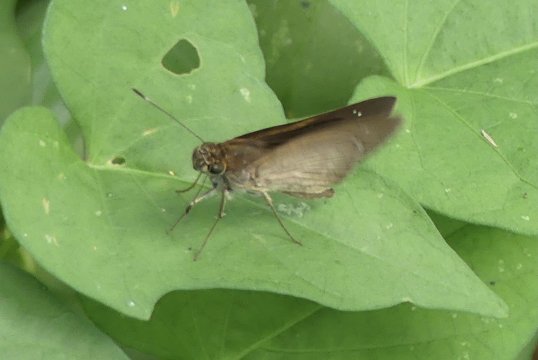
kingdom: Animalia
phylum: Arthropoda
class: Insecta
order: Lepidoptera
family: Hesperiidae
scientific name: Hesperiidae
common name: Skippers
